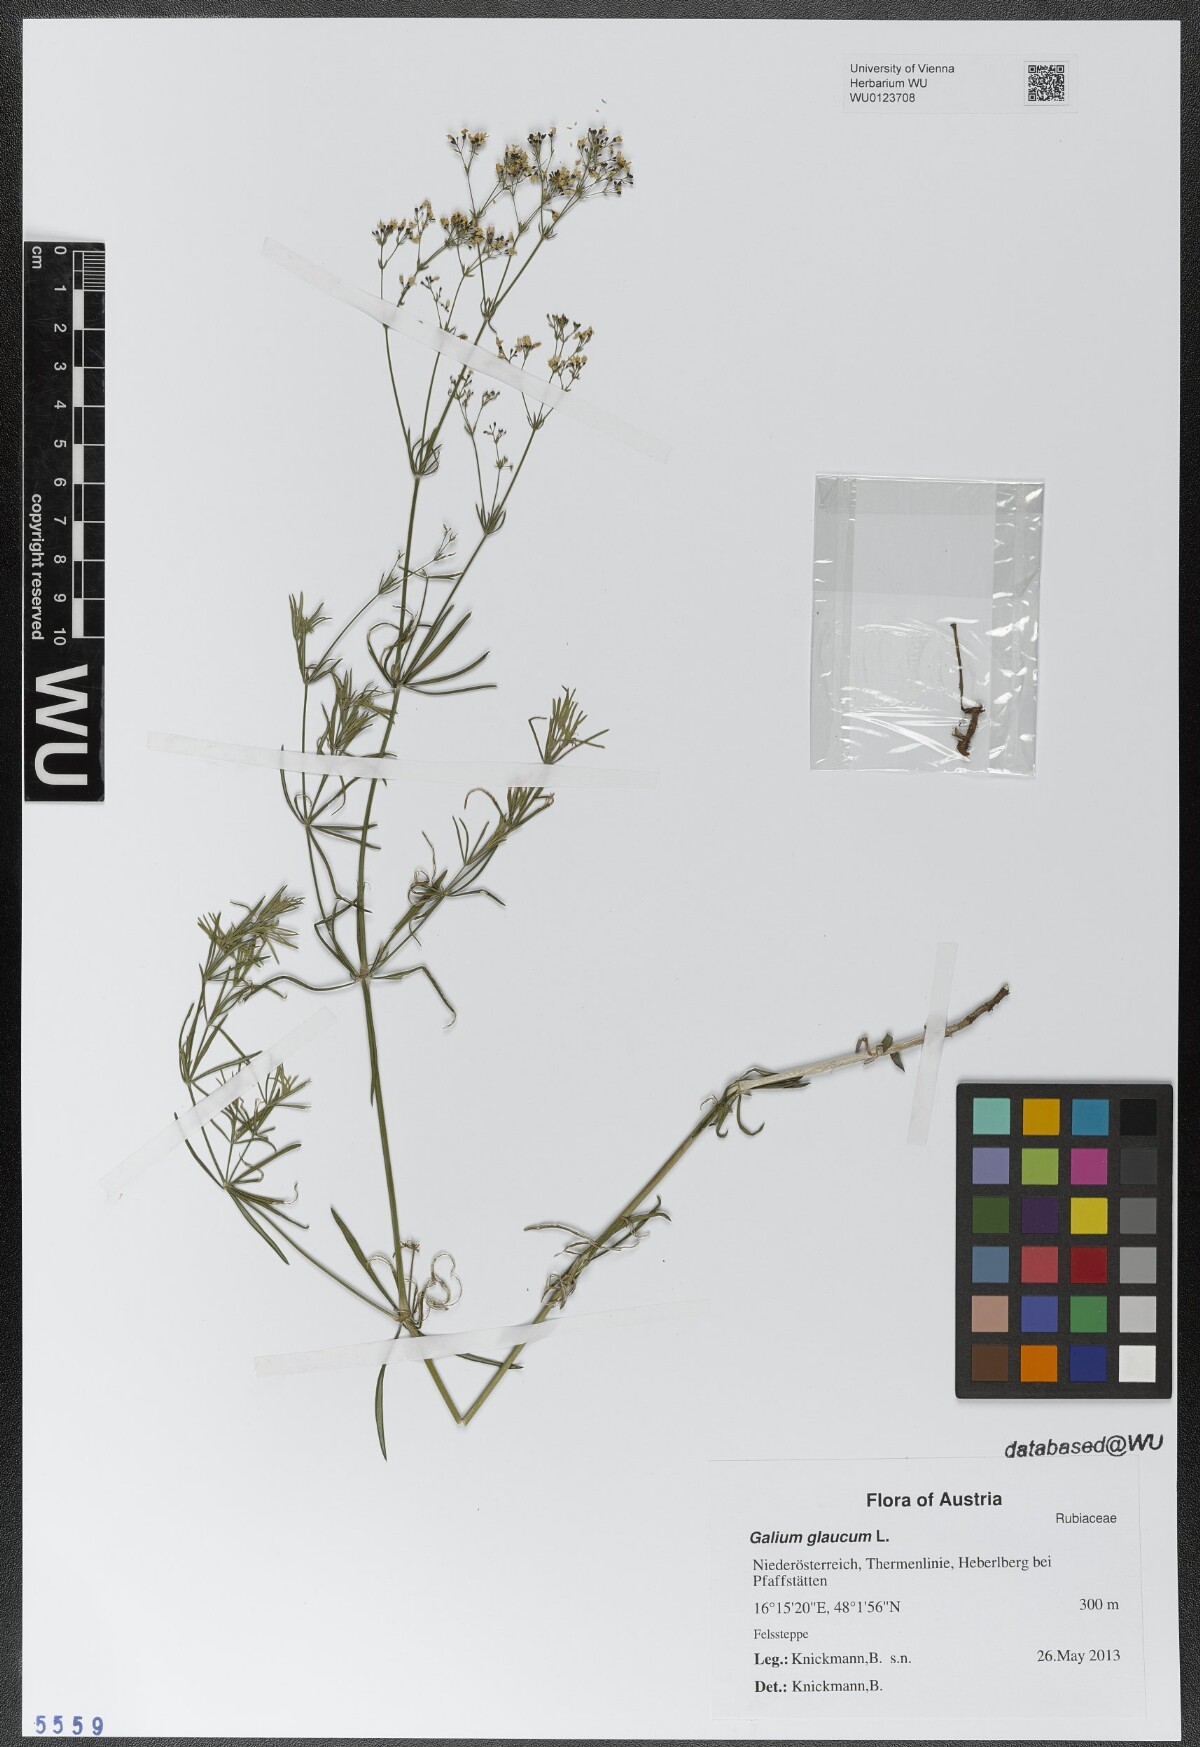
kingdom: Plantae
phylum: Tracheophyta
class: Magnoliopsida
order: Gentianales
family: Rubiaceae
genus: Galium
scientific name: Galium glaucum
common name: Waxy bedstraw
